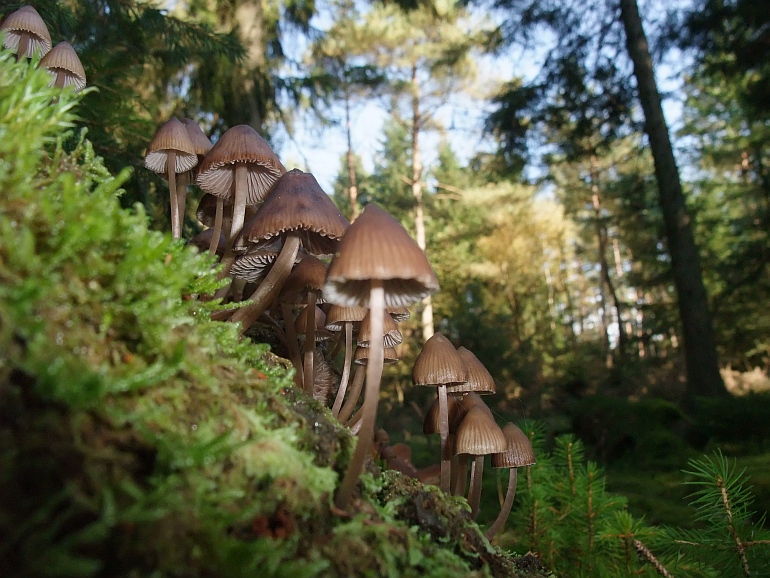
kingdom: Fungi
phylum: Basidiomycota
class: Agaricomycetes
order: Agaricales
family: Mycenaceae
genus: Mycena
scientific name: Mycena stipata
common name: stinkende huesvamp
